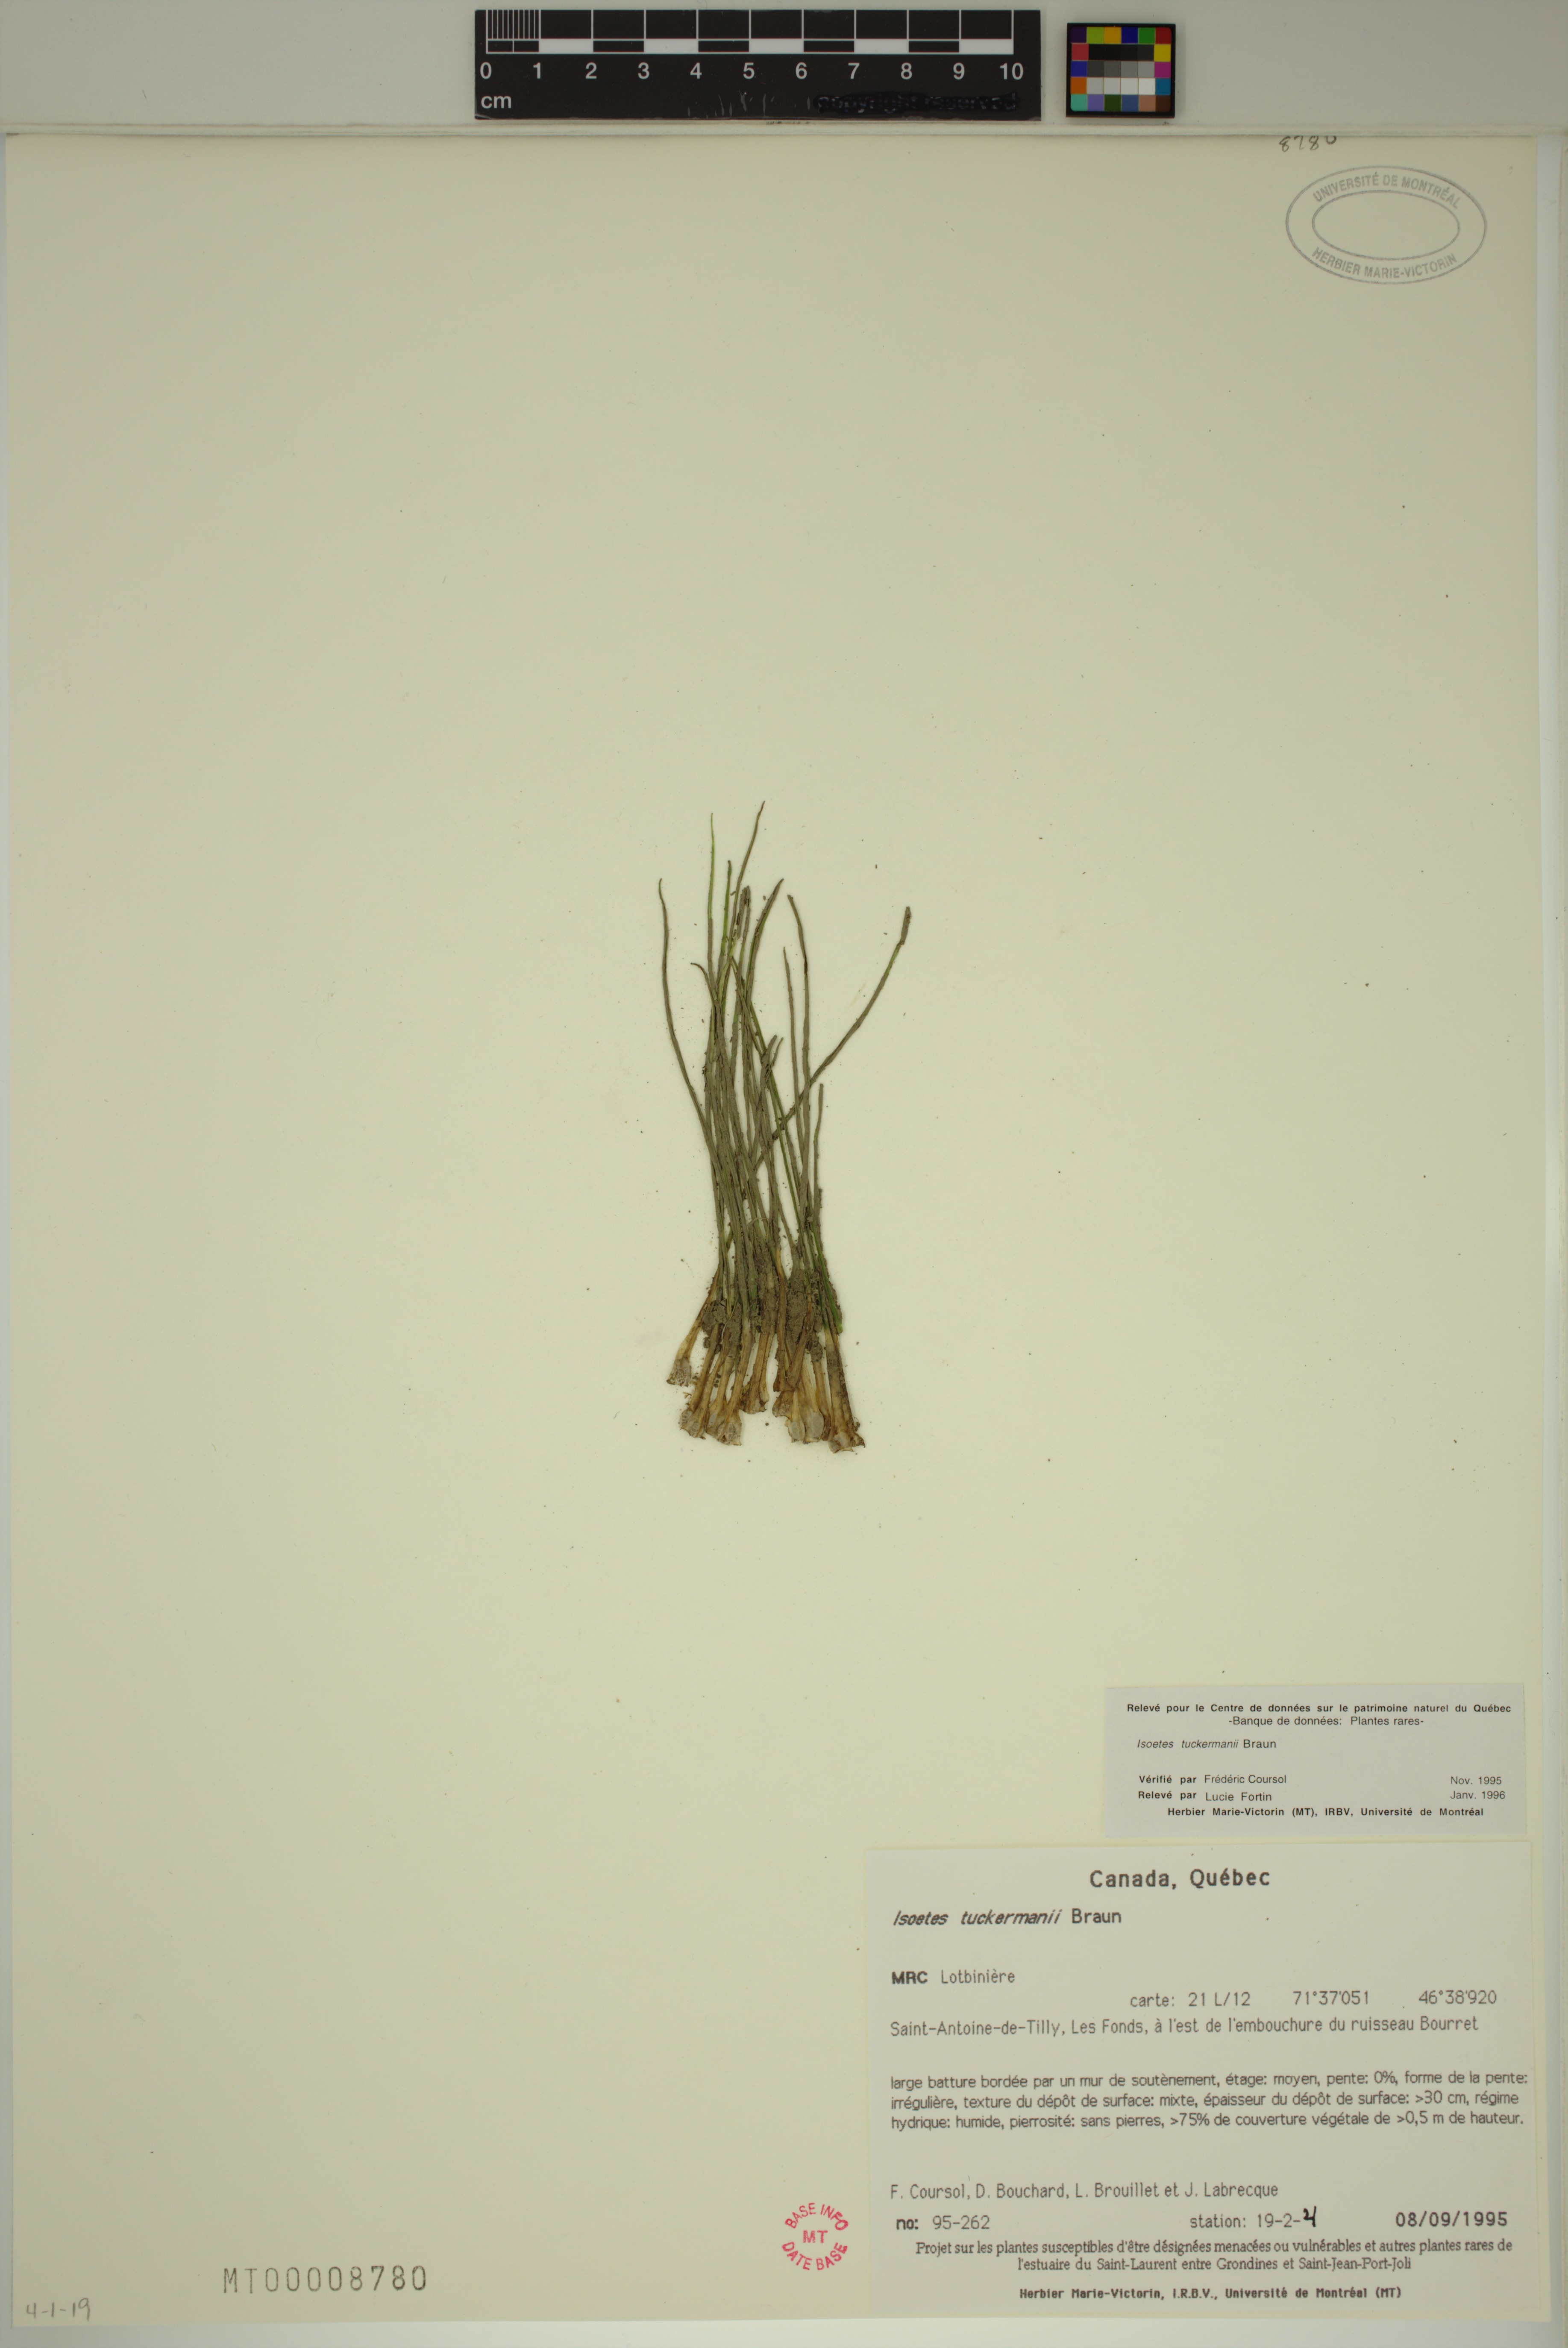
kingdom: Plantae
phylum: Tracheophyta
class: Lycopodiopsida
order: Isoetales
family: Isoetaceae
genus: Isoetes
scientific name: Isoetes laurentiana
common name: St. lawrence quillwort
